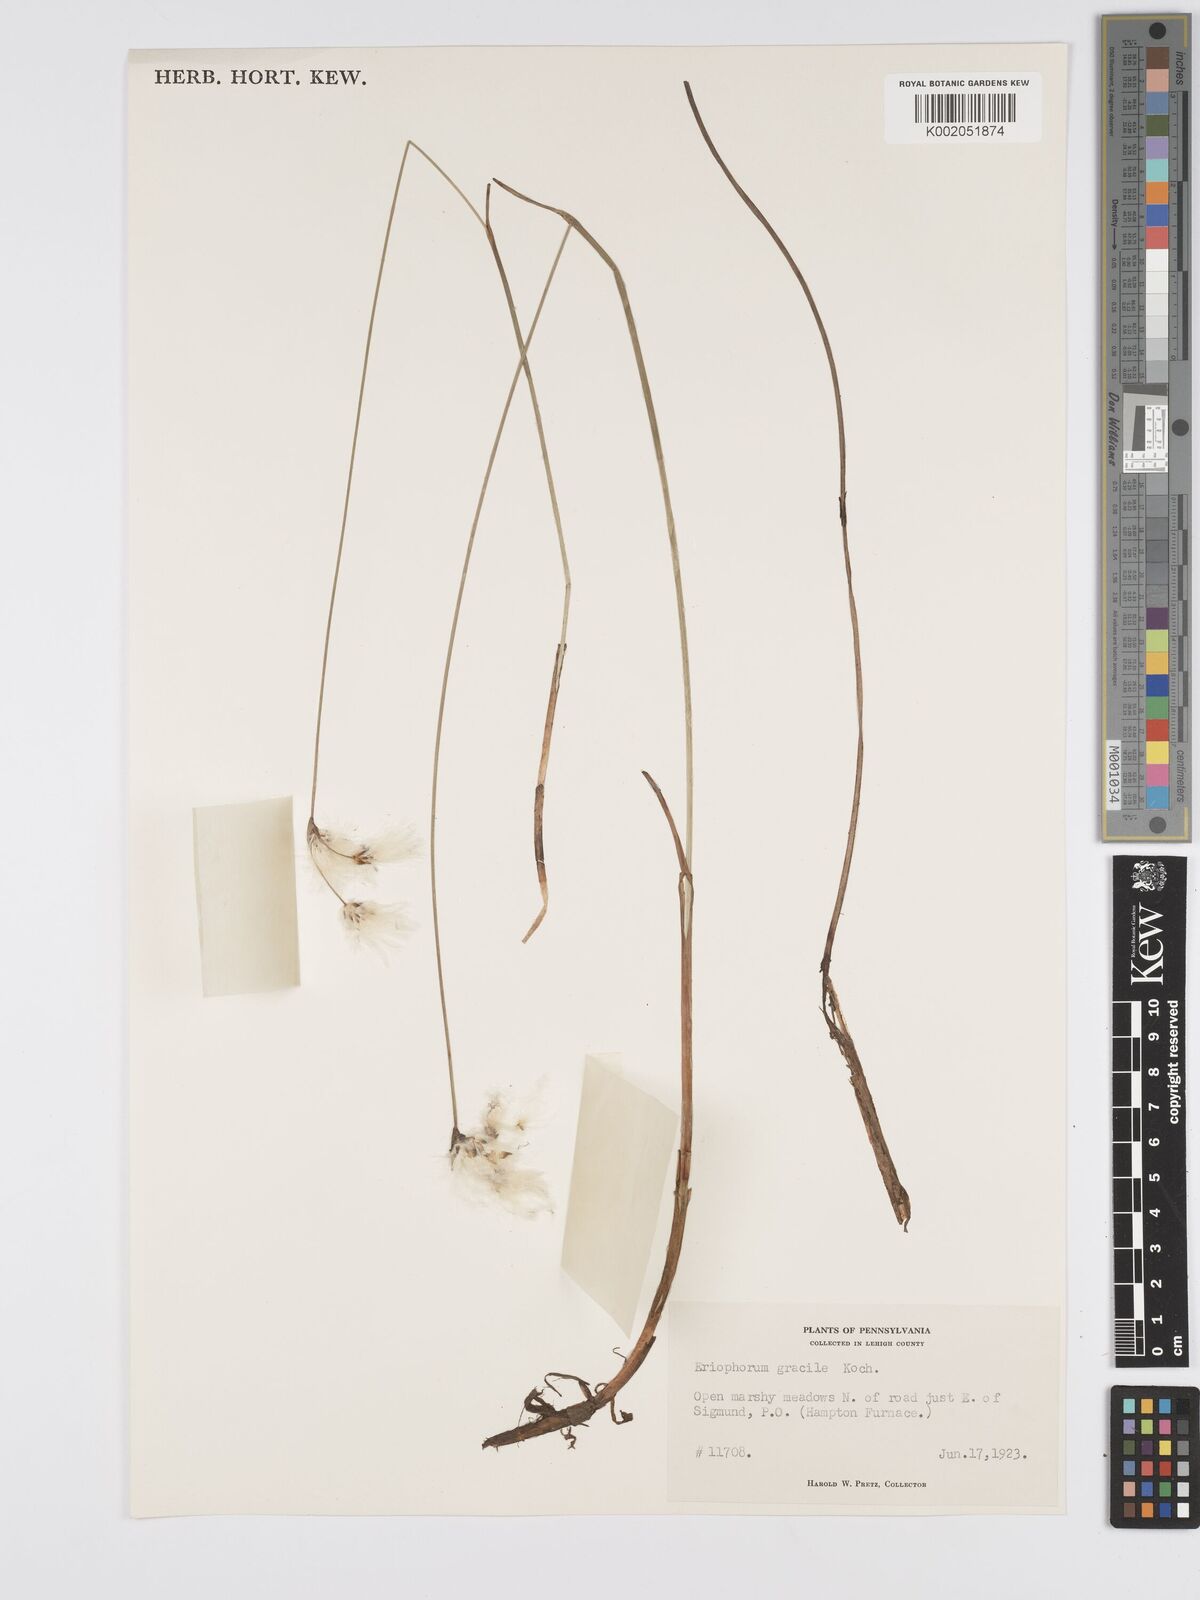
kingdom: Plantae
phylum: Tracheophyta
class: Liliopsida
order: Poales
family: Cyperaceae
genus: Eriophorum
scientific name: Eriophorum gracile
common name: Slender cottongrass
